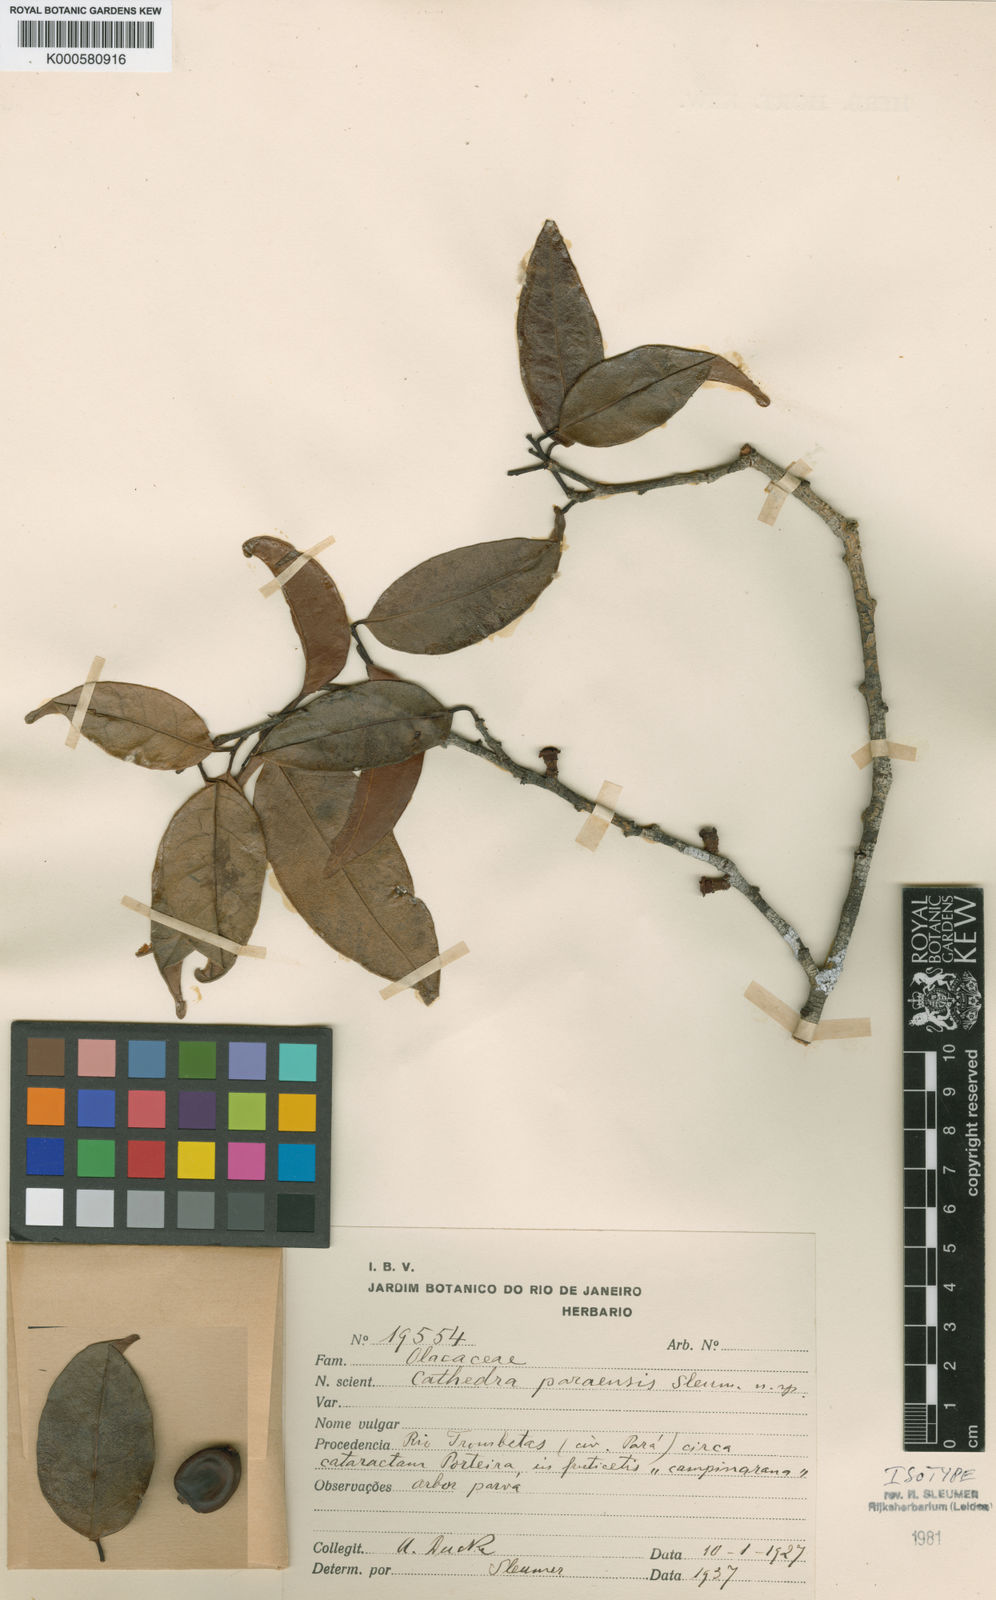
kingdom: Plantae
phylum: Tracheophyta
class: Magnoliopsida
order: Santalales
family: Aptandraceae
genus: Cathedra
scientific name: Cathedra paraensis
